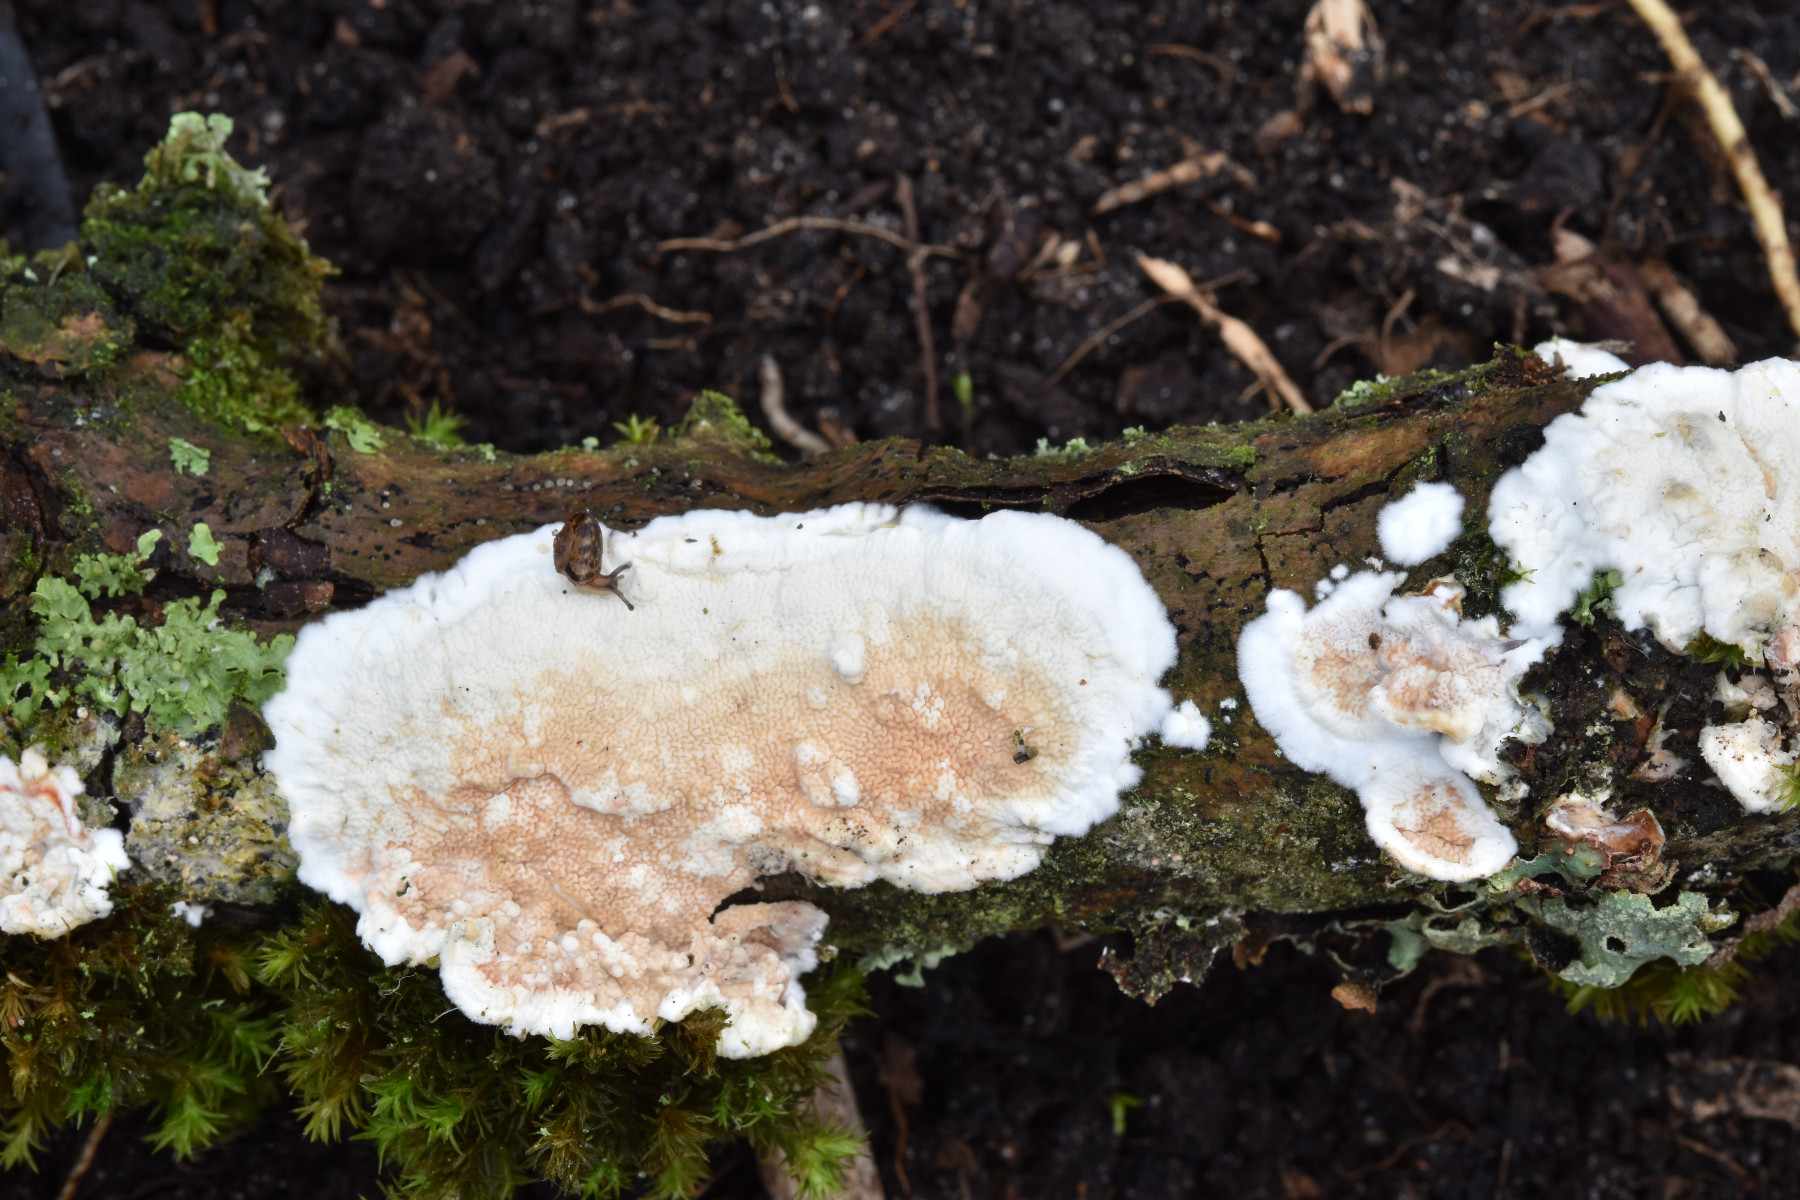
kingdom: Fungi
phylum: Basidiomycota
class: Agaricomycetes
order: Polyporales
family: Irpicaceae
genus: Byssomerulius
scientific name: Byssomerulius corium
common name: læder-åresvamp
